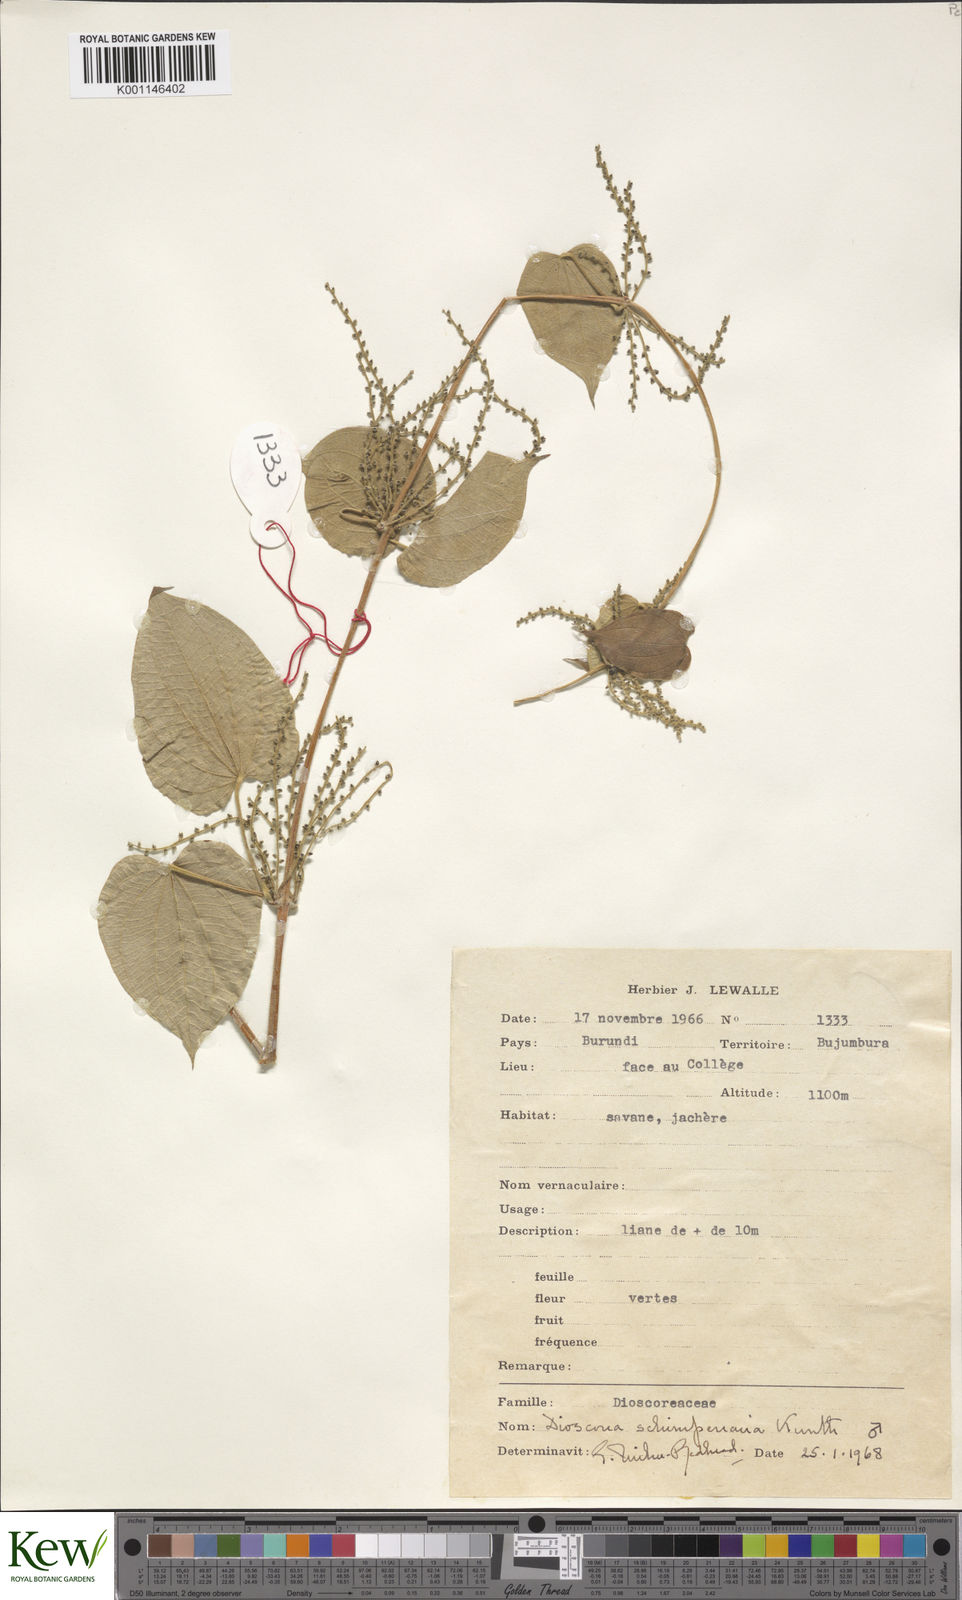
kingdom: Plantae
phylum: Tracheophyta
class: Liliopsida
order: Dioscoreales
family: Dioscoreaceae
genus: Dioscorea
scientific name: Dioscorea schimperiana
